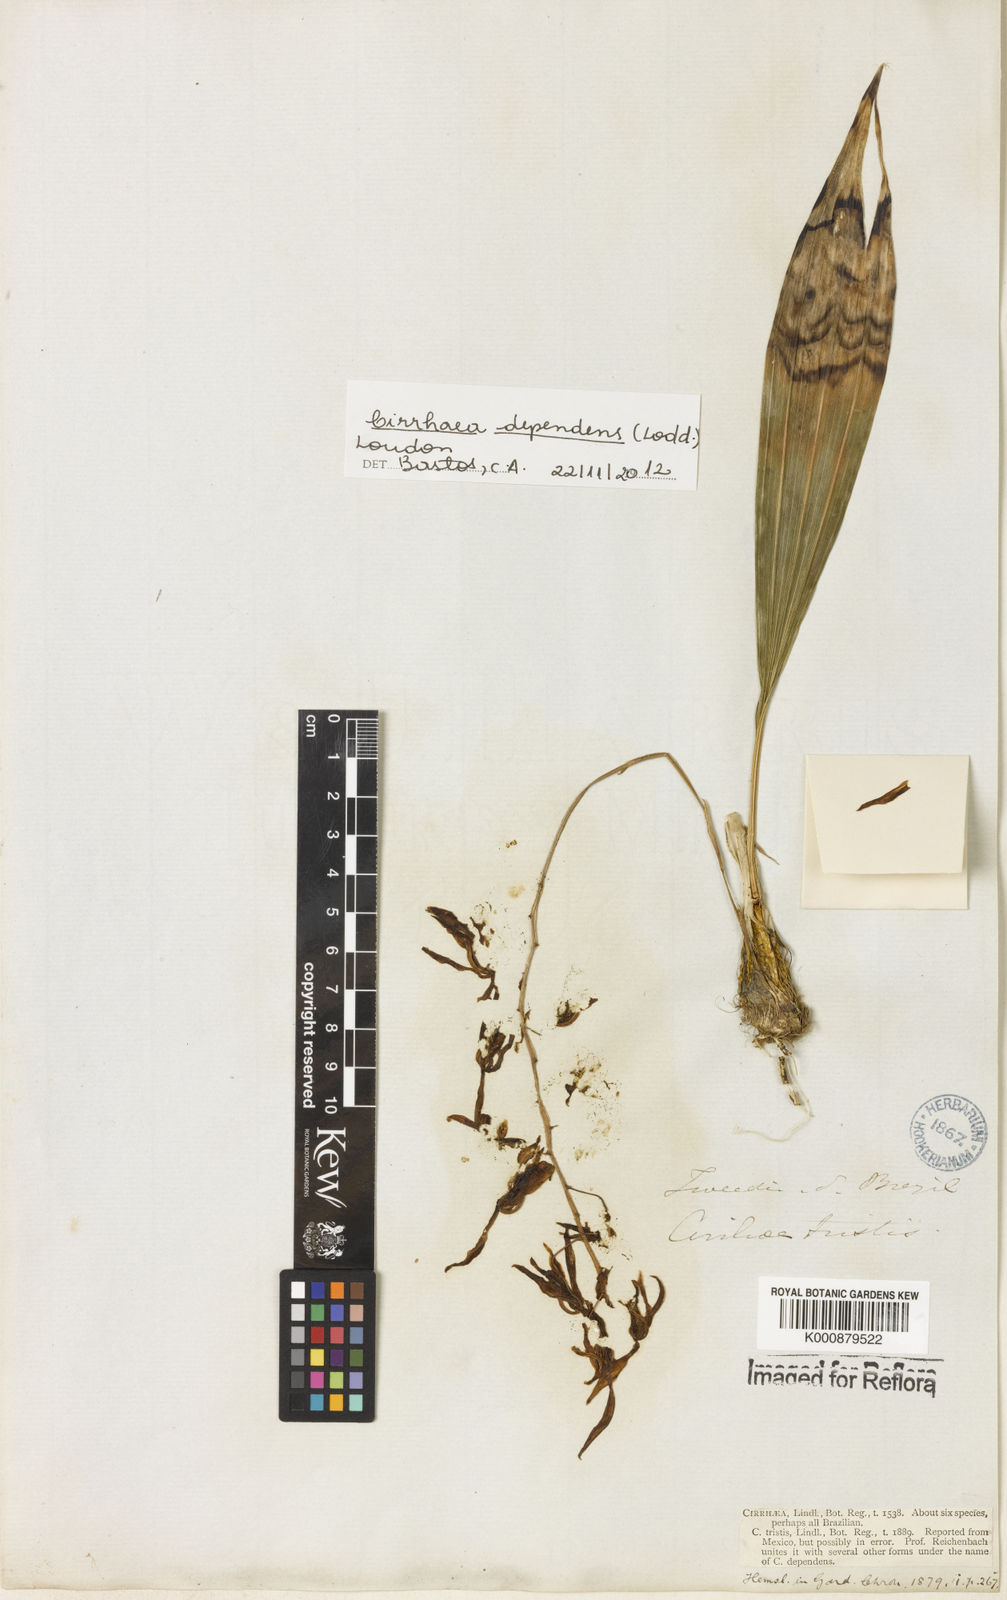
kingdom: Plantae
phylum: Tracheophyta
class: Liliopsida
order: Asparagales
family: Orchidaceae
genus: Cirrhaea
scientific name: Cirrhaea
